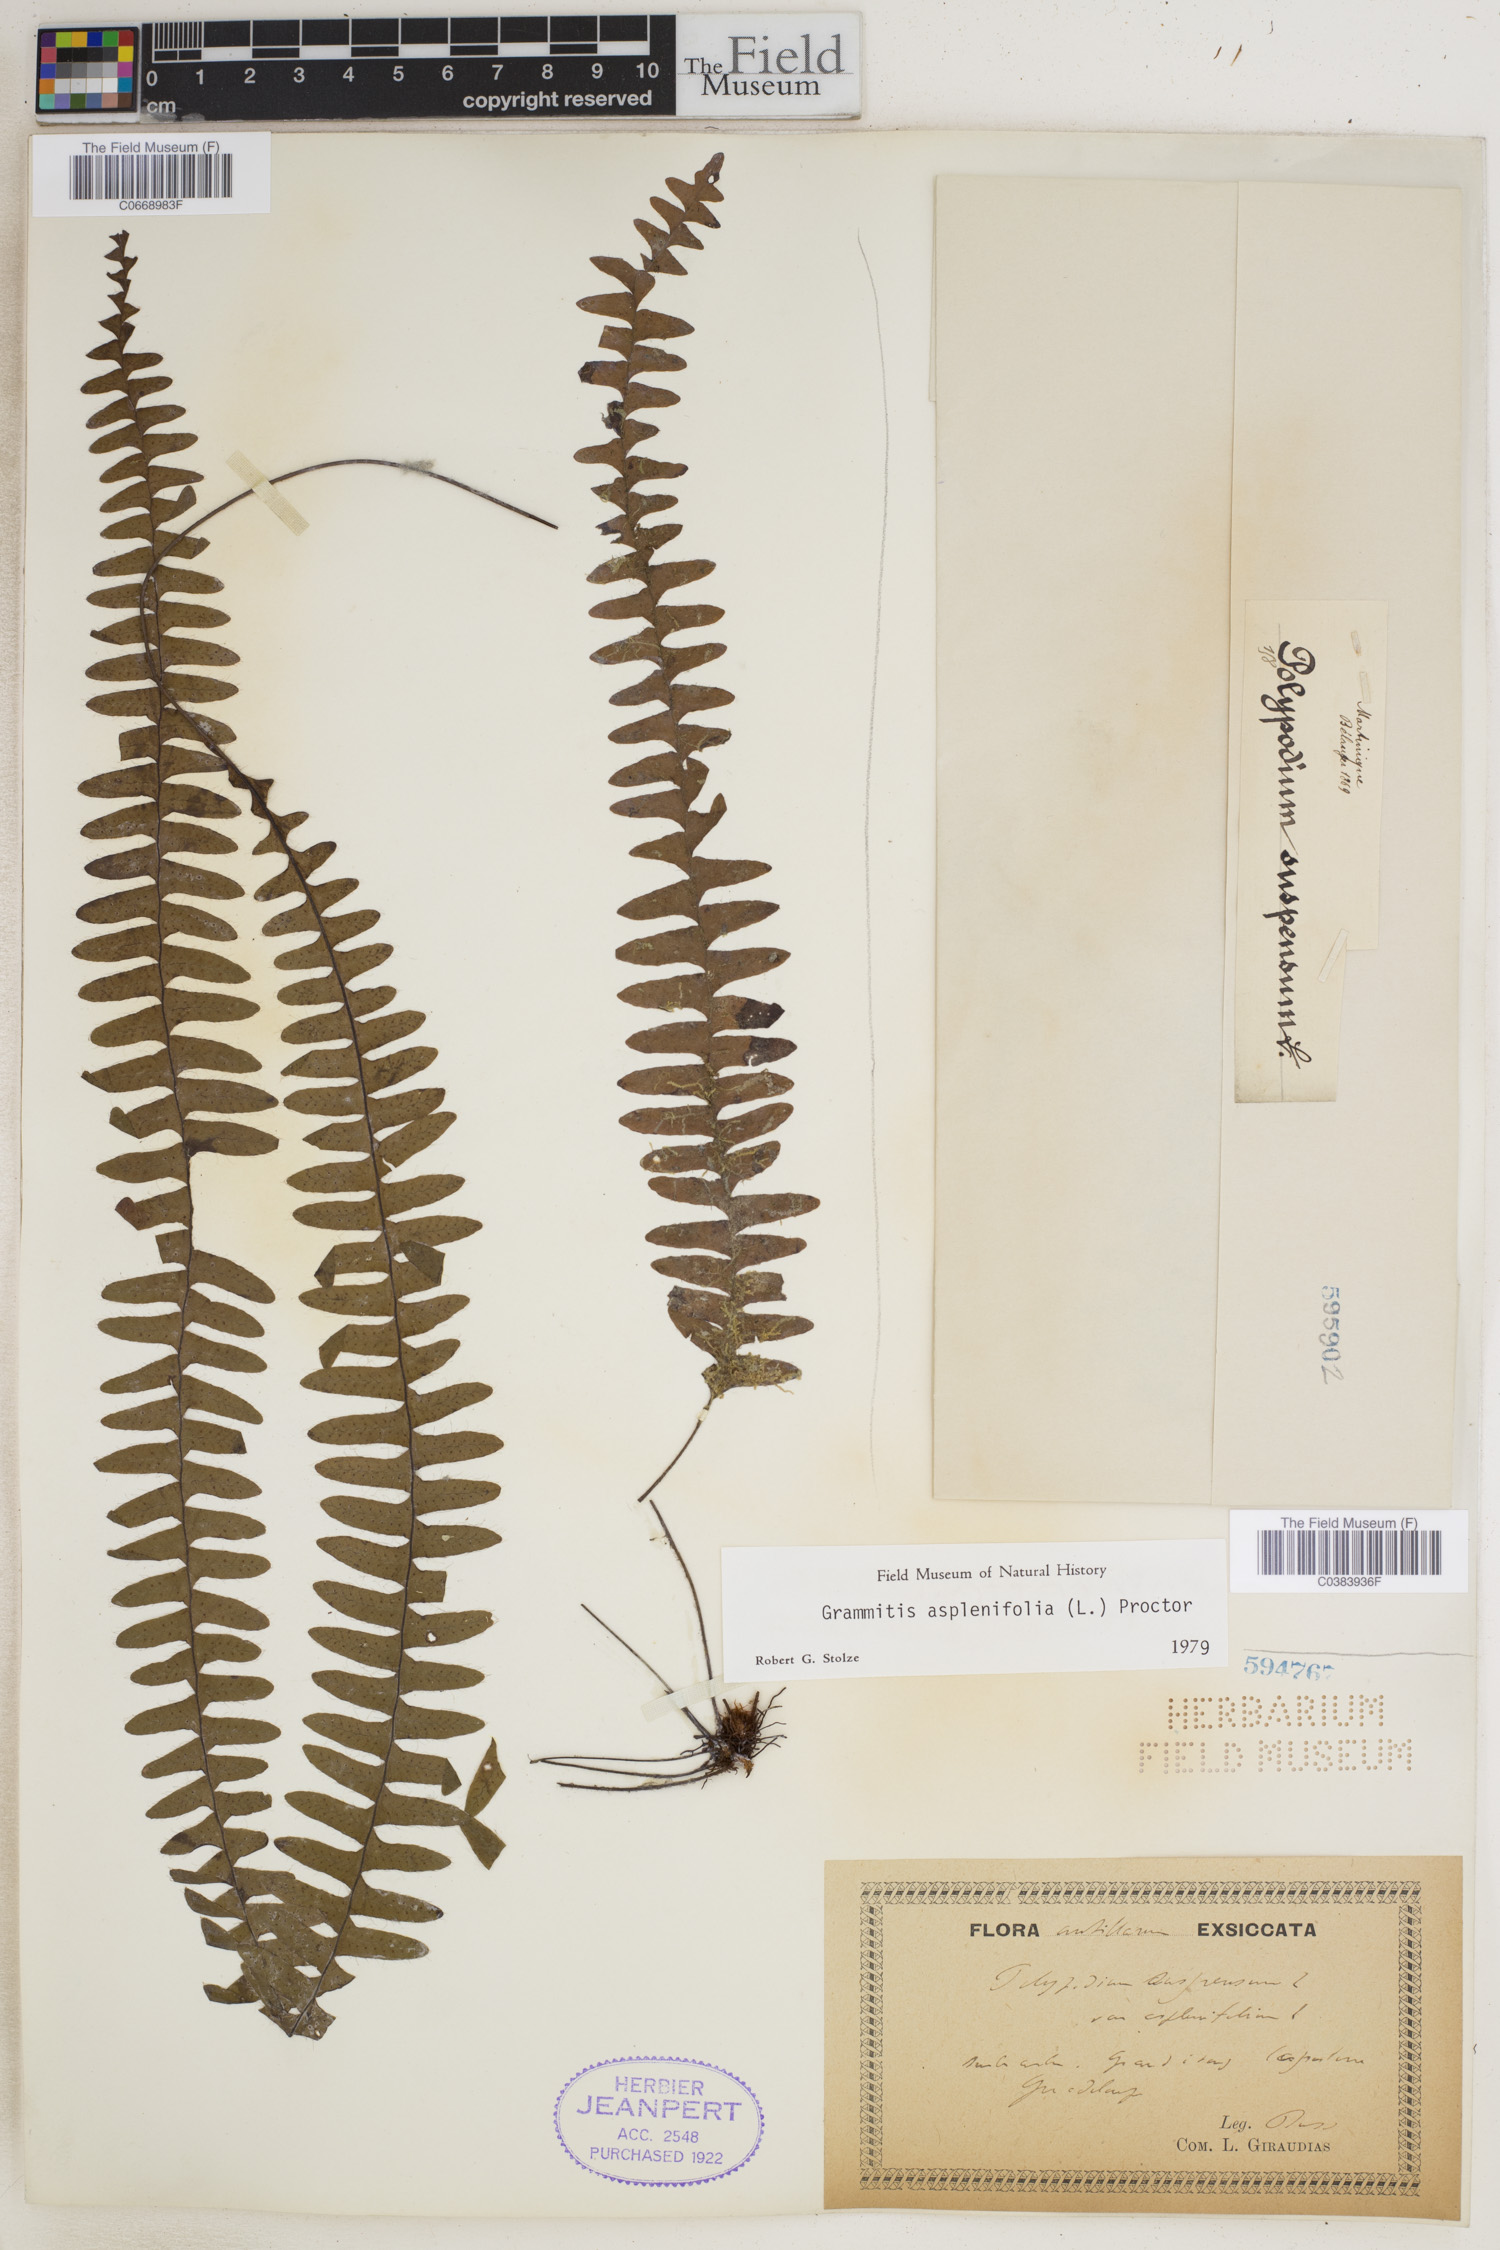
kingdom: Plantae
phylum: Tracheophyta
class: Polypodiopsida
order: Polypodiales
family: Polypodiaceae
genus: Terpsichore
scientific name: Terpsichore asplenifolia
